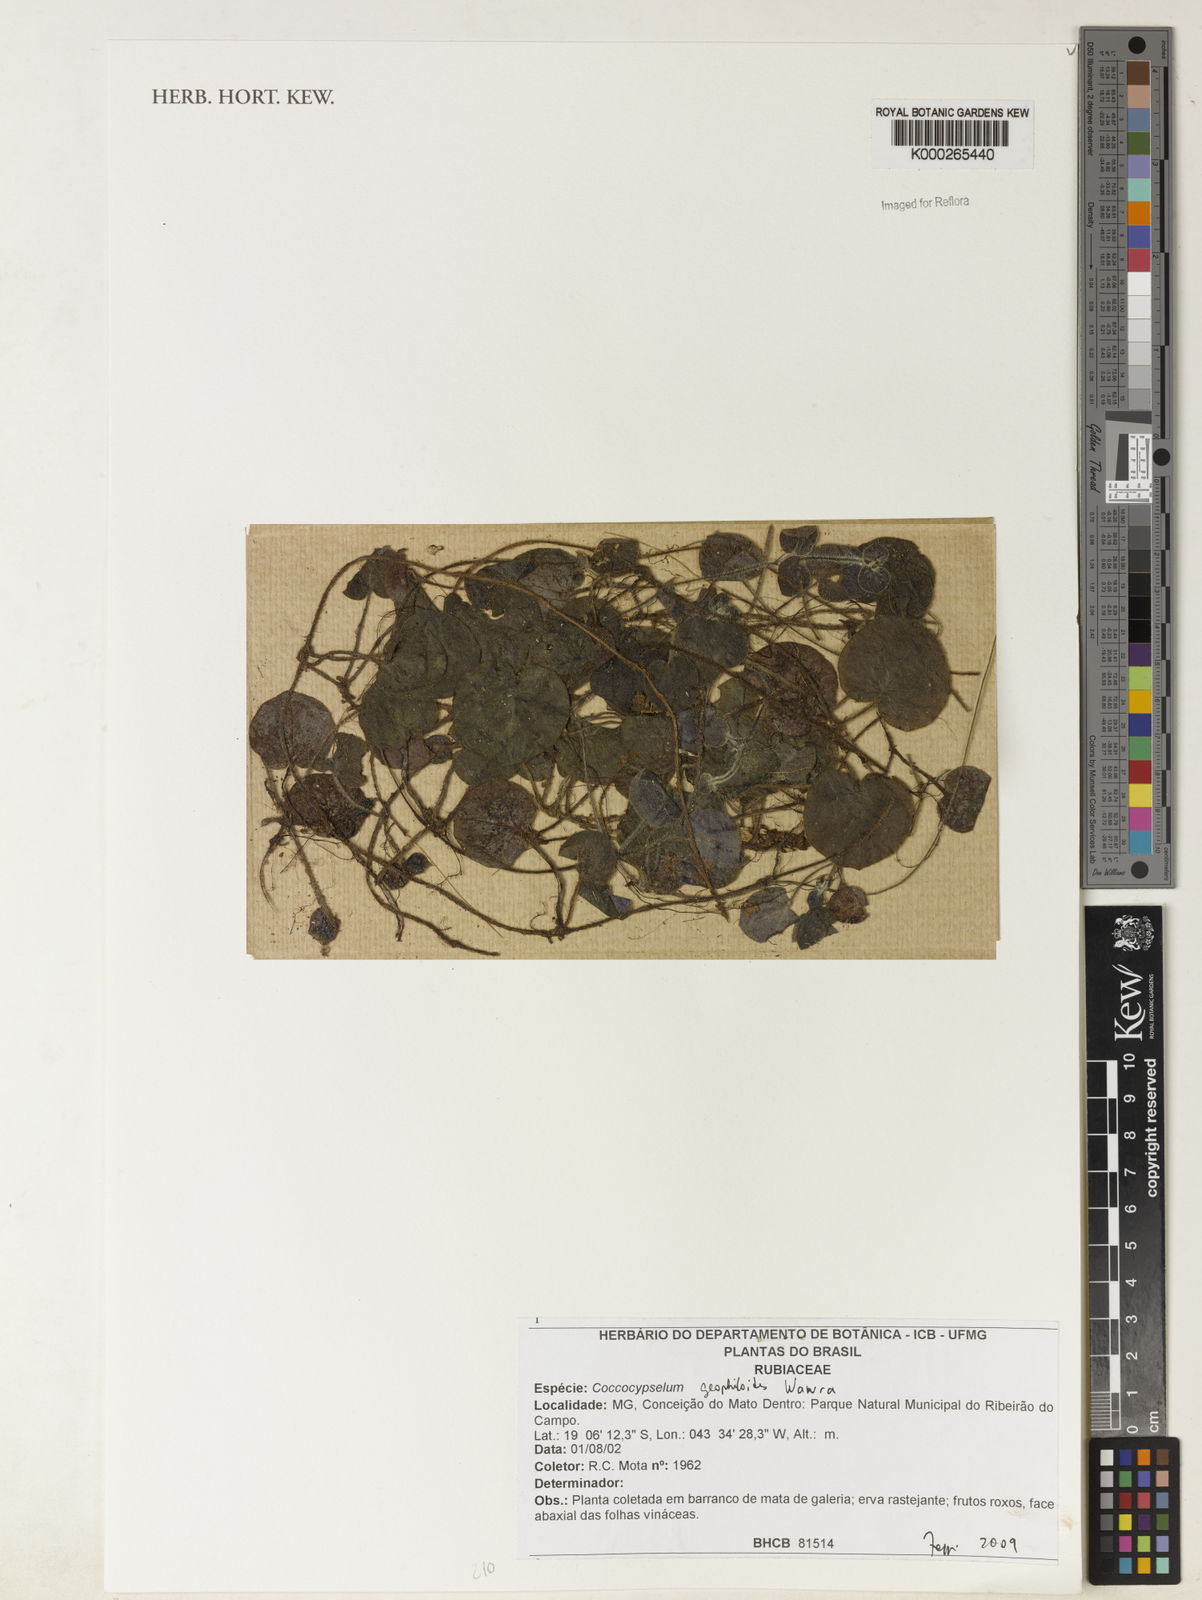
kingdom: Plantae
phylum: Tracheophyta
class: Magnoliopsida
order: Gentianales
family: Rubiaceae
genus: Coccocypselum
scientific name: Coccocypselum geophiloides
